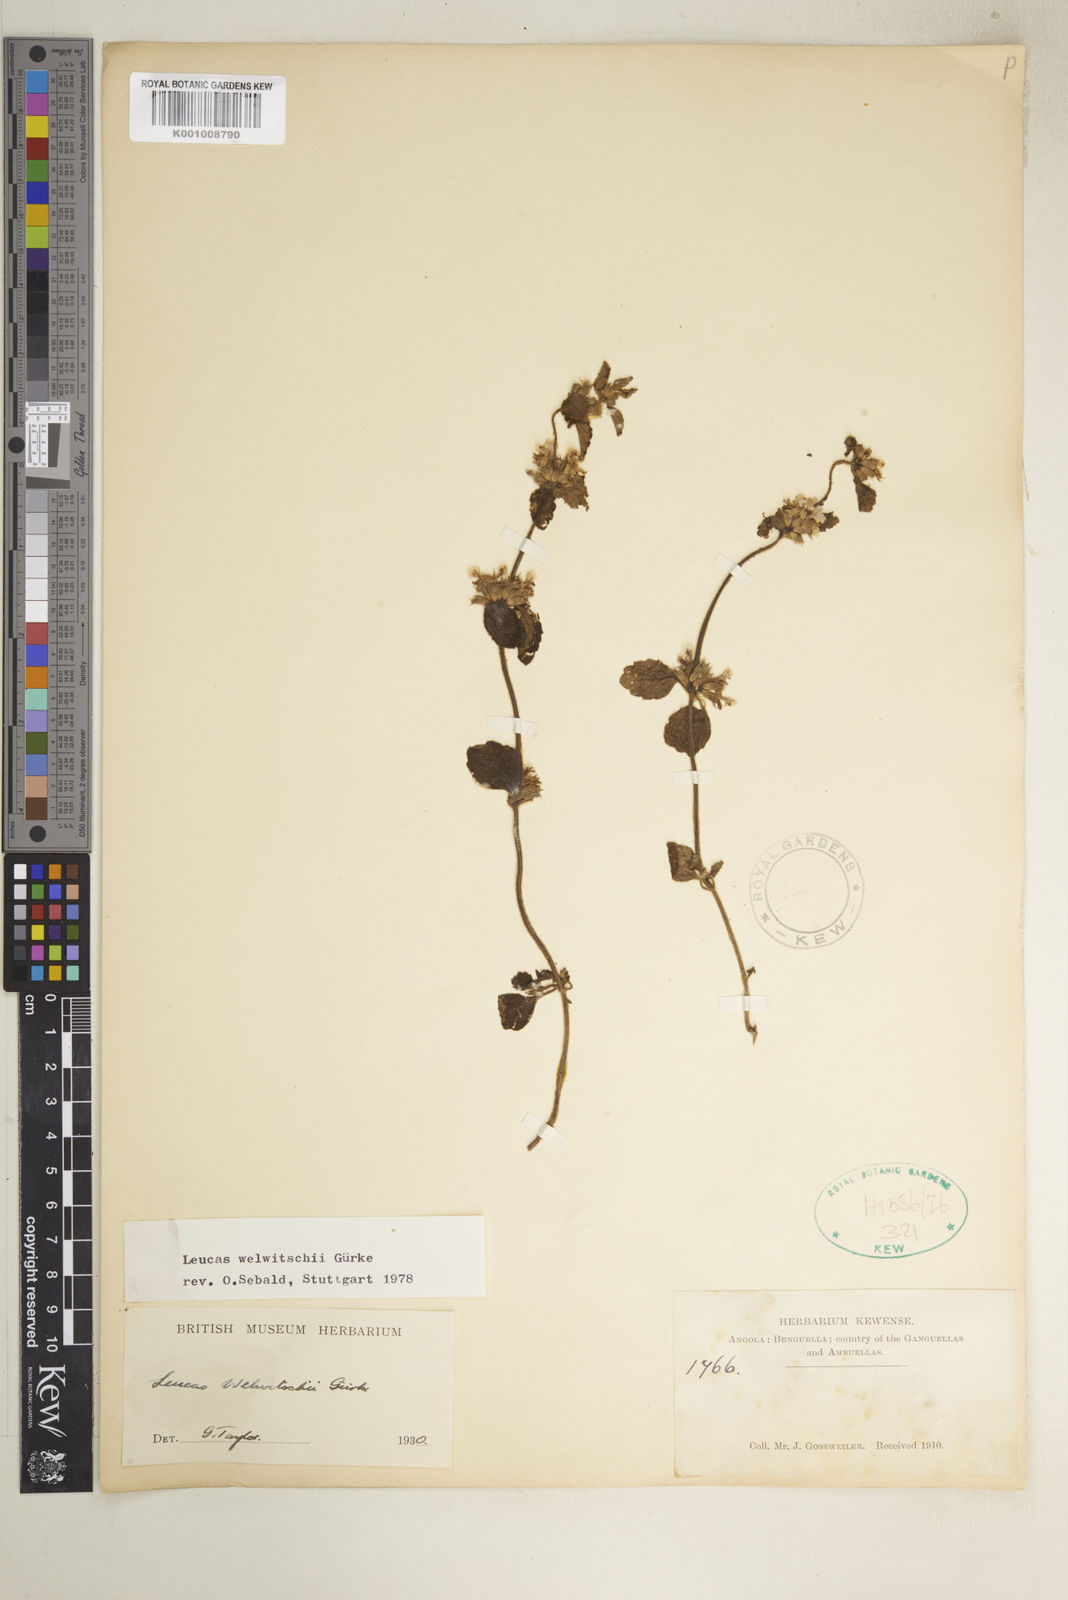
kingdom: Plantae
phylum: Tracheophyta
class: Magnoliopsida
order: Lamiales
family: Lamiaceae
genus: Leucas
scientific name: Leucas
